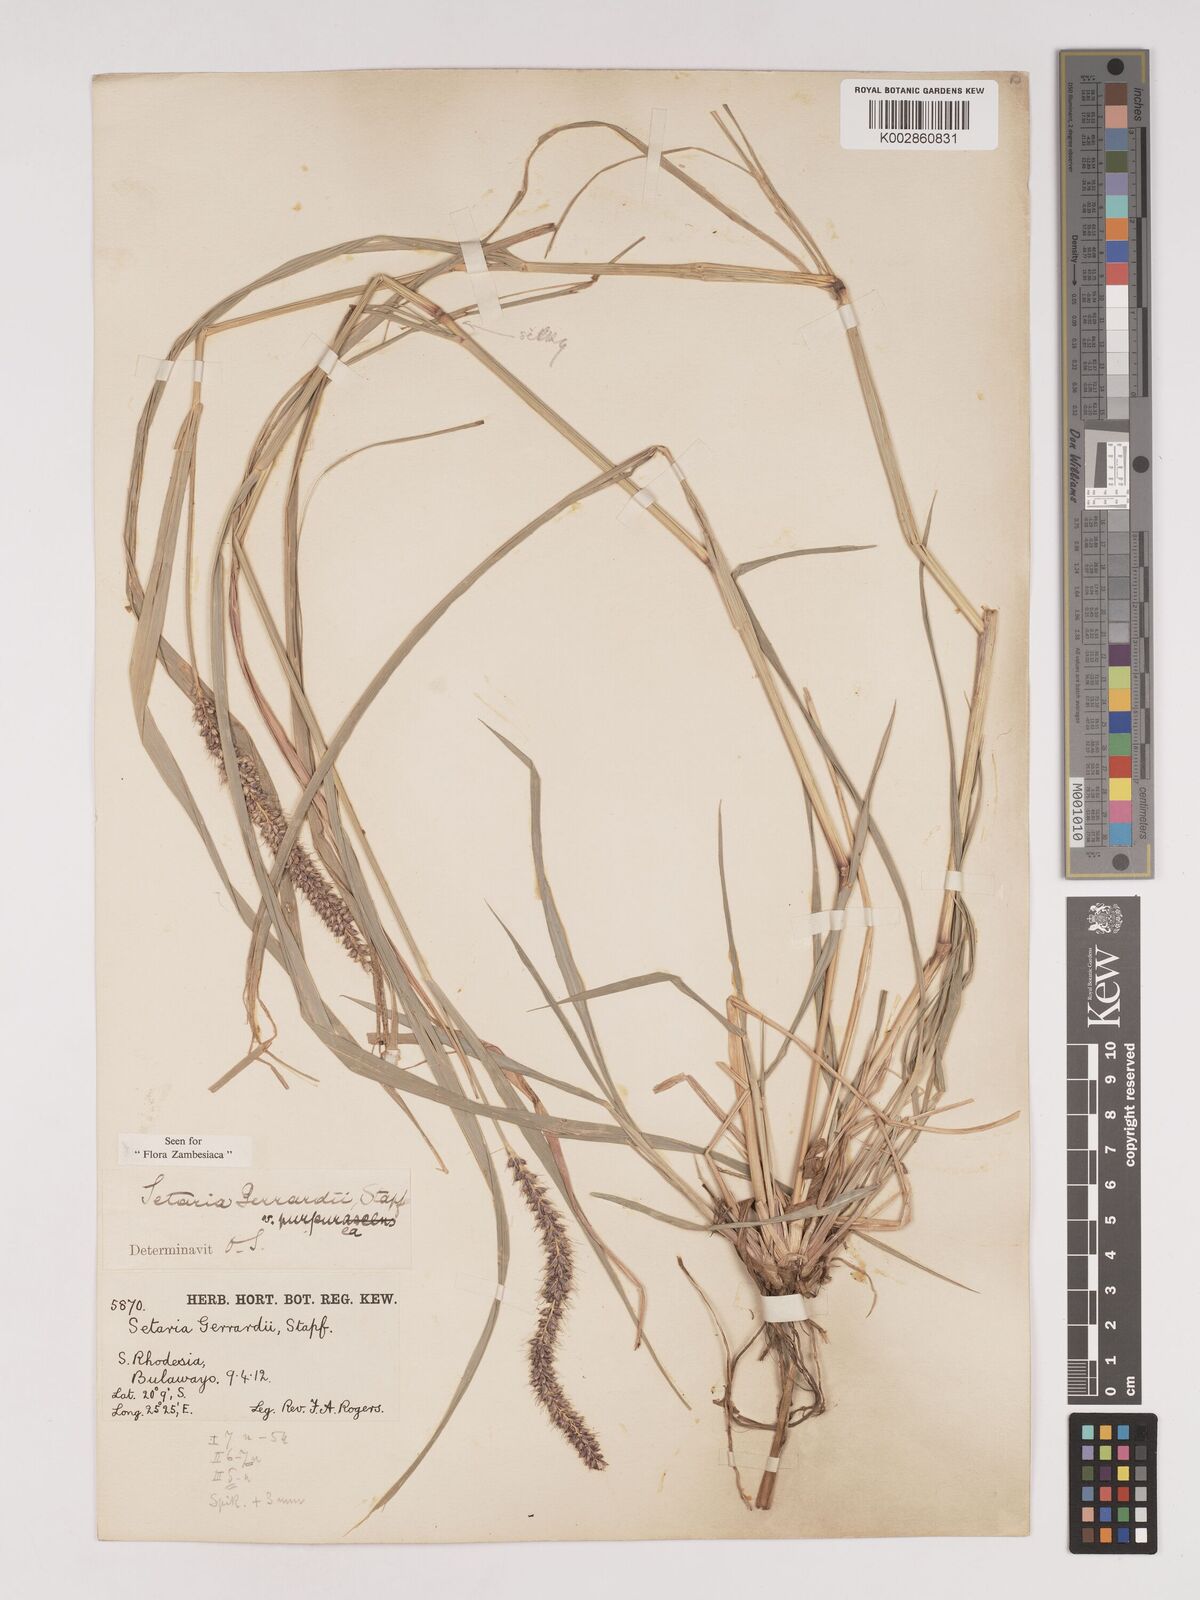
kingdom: Plantae
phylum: Tracheophyta
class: Liliopsida
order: Poales
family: Poaceae
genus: Setaria
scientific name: Setaria incrassata
